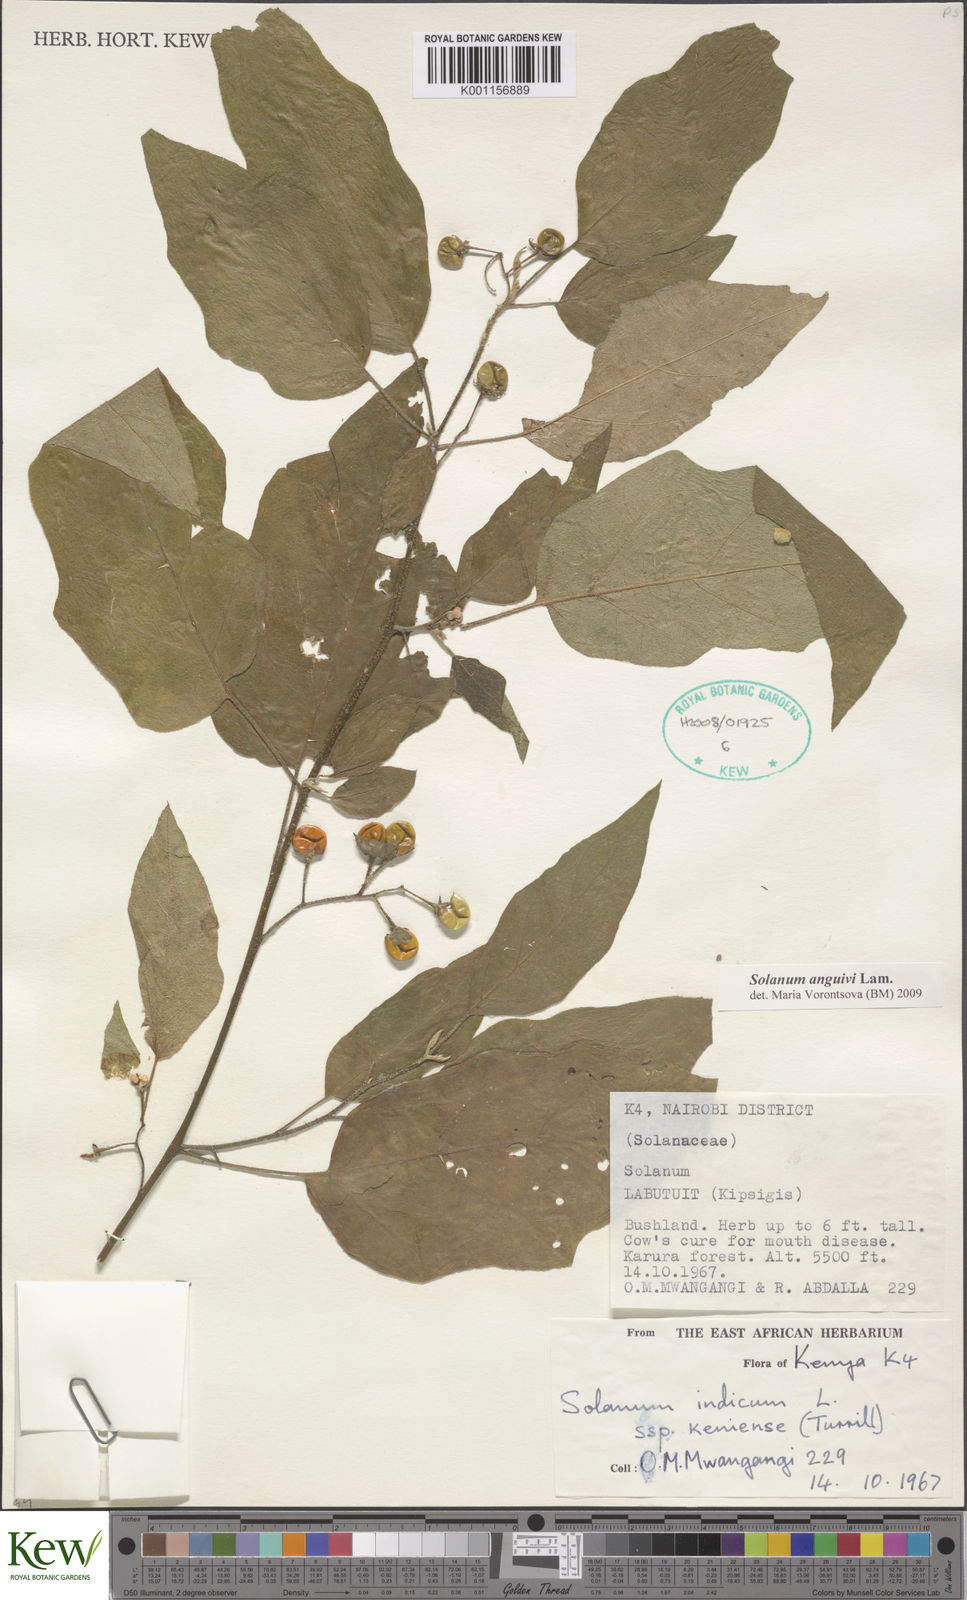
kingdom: Plantae
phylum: Tracheophyta
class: Magnoliopsida
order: Solanales
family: Solanaceae
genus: Solanum
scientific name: Solanum anguivi
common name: Forest bitterberry
